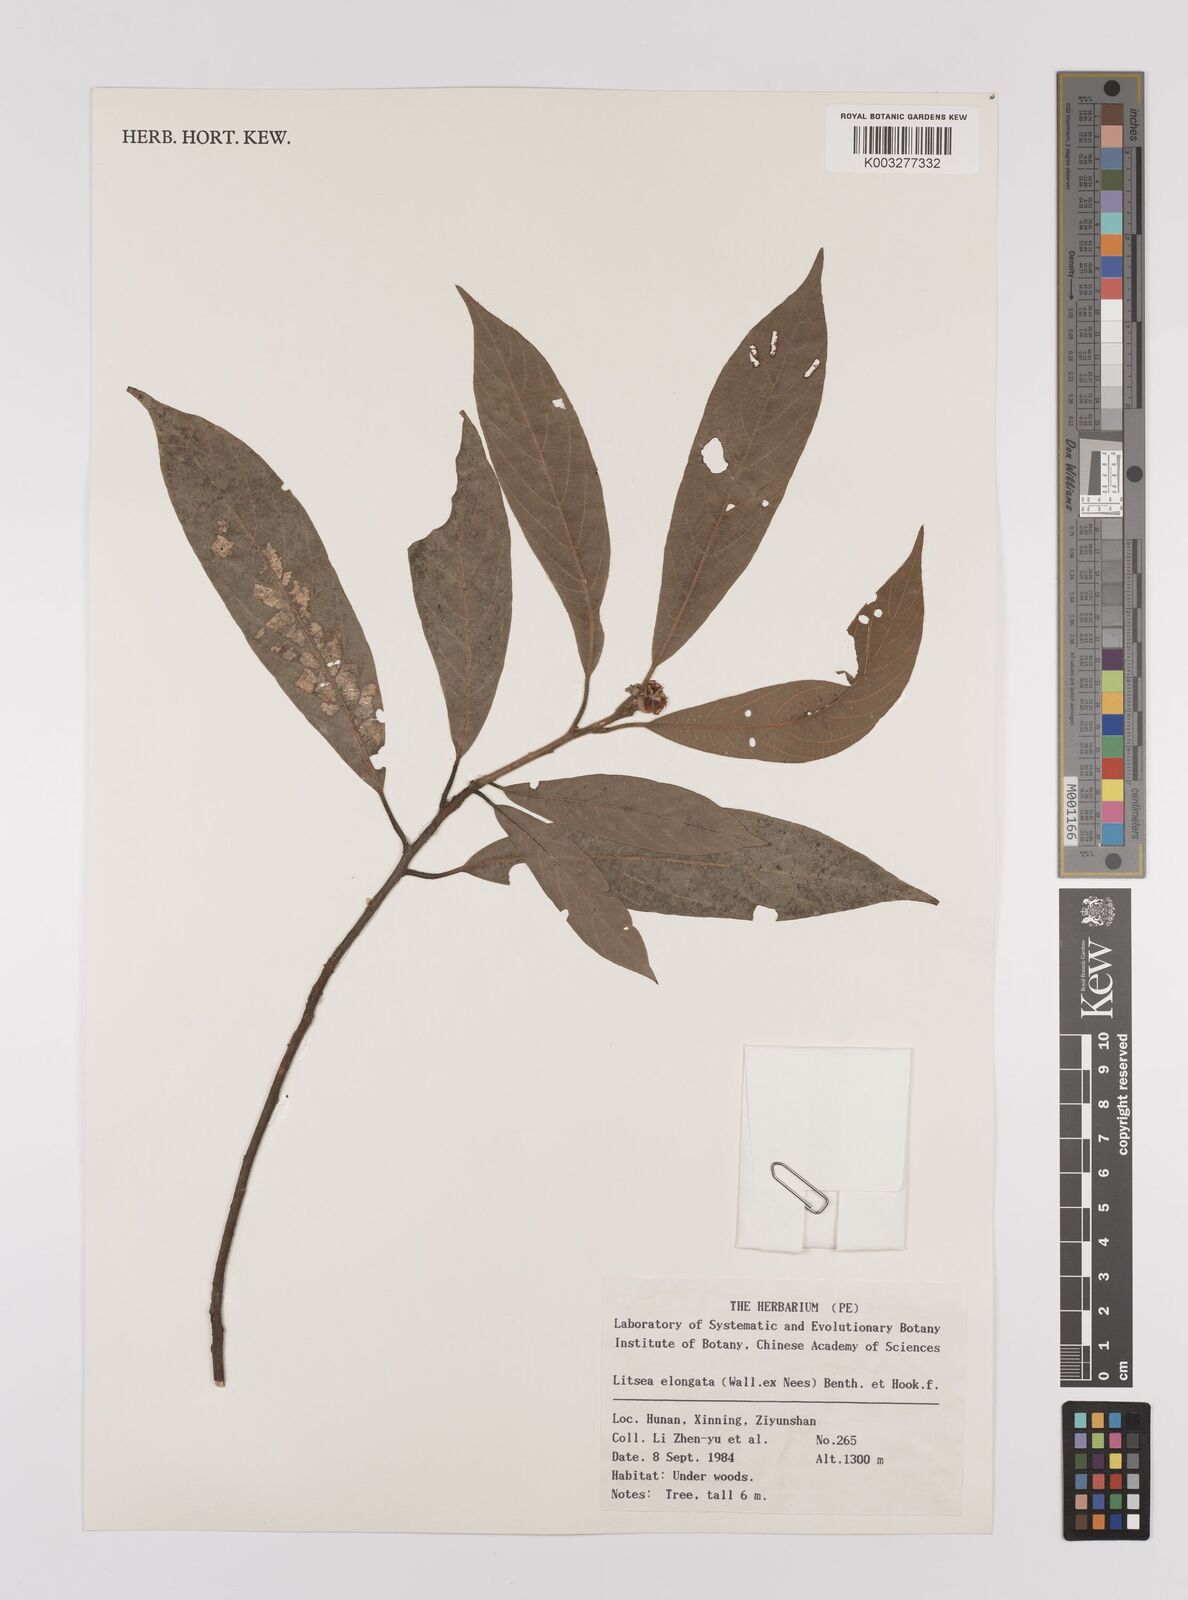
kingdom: Plantae
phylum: Tracheophyta
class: Magnoliopsida
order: Laurales
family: Lauraceae
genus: Litsea
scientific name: Litsea elongata
